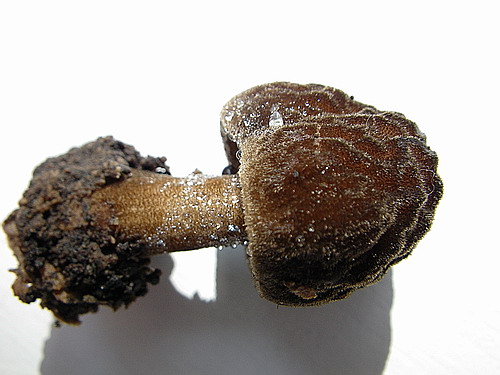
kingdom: Fungi
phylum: Basidiomycota
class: Agaricomycetes
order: Agaricales
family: Pluteaceae
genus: Pluteus
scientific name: Pluteus umbrosus
